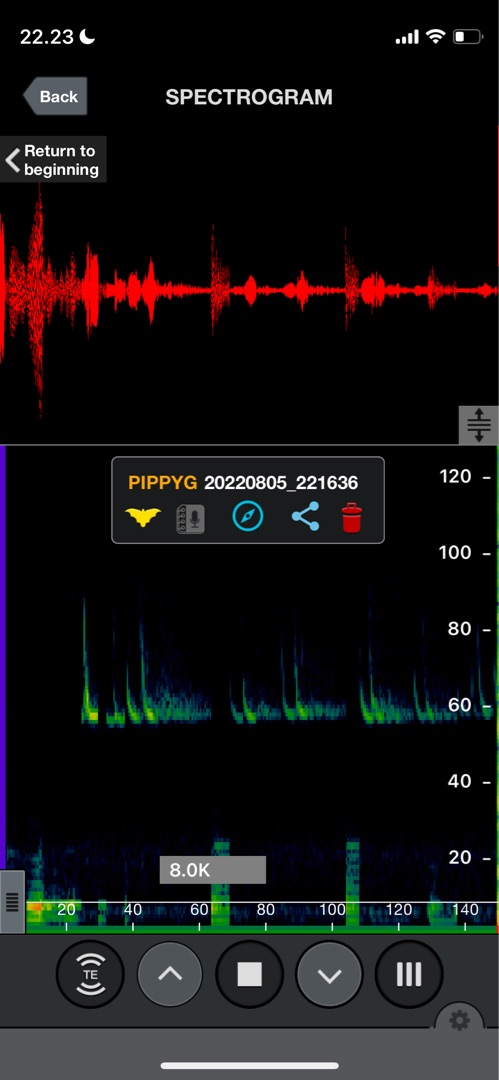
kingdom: Animalia
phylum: Chordata
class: Mammalia
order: Chiroptera
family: Vespertilionidae
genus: Pipistrellus
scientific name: Pipistrellus pygmaeus
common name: Dværgflagermus
